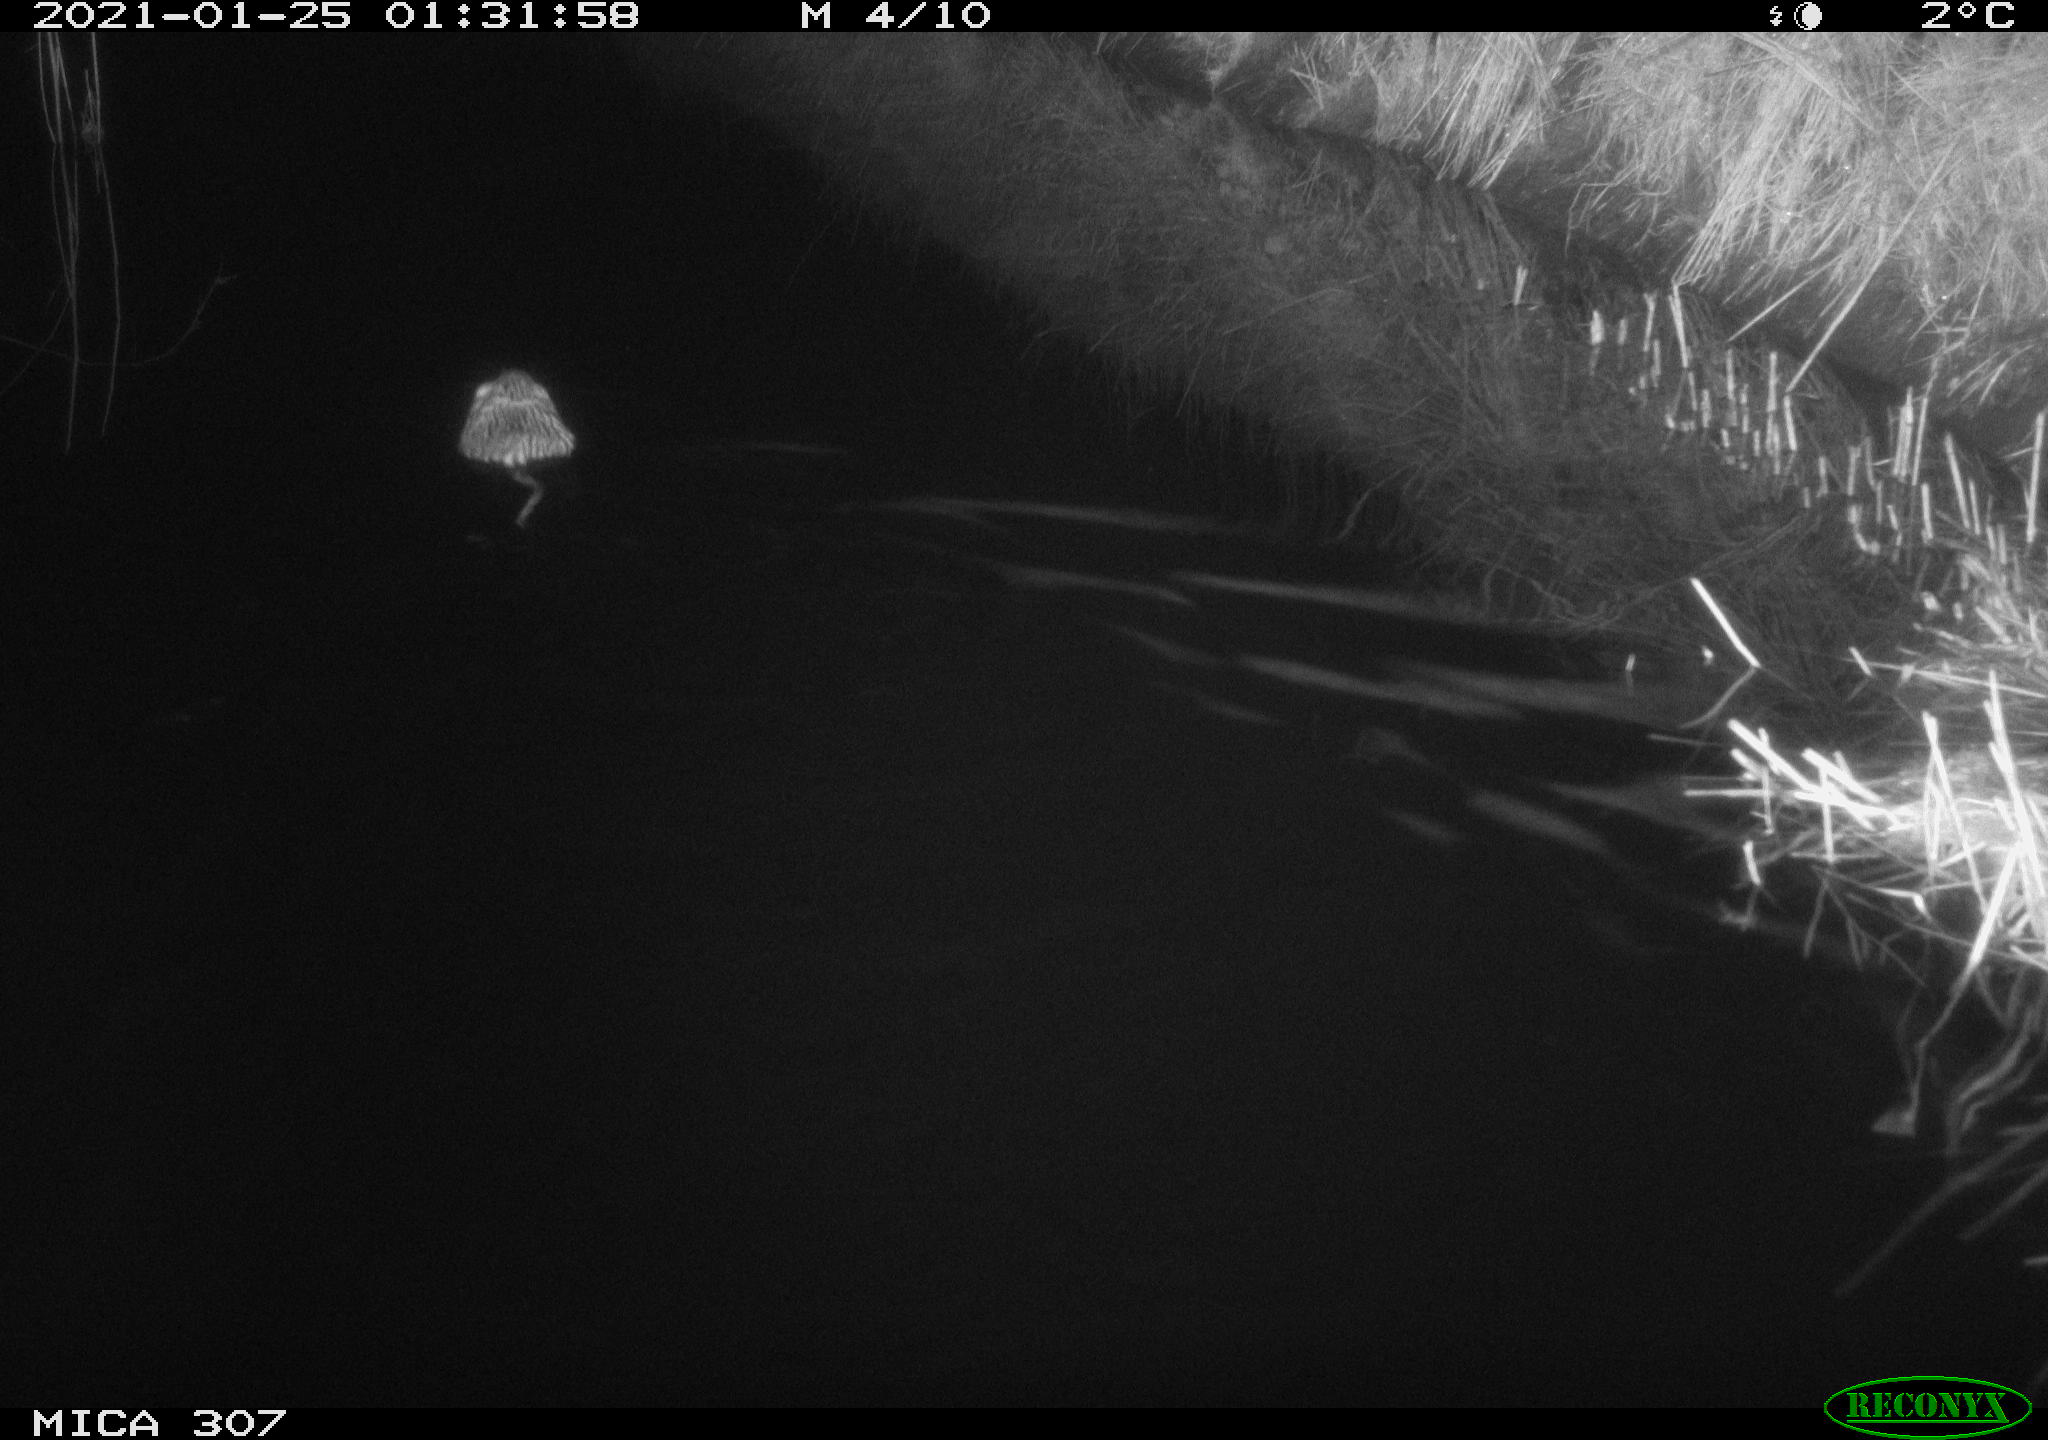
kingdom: Animalia
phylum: Chordata
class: Mammalia
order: Rodentia
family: Cricetidae
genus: Ondatra
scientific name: Ondatra zibethicus
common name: Muskrat
